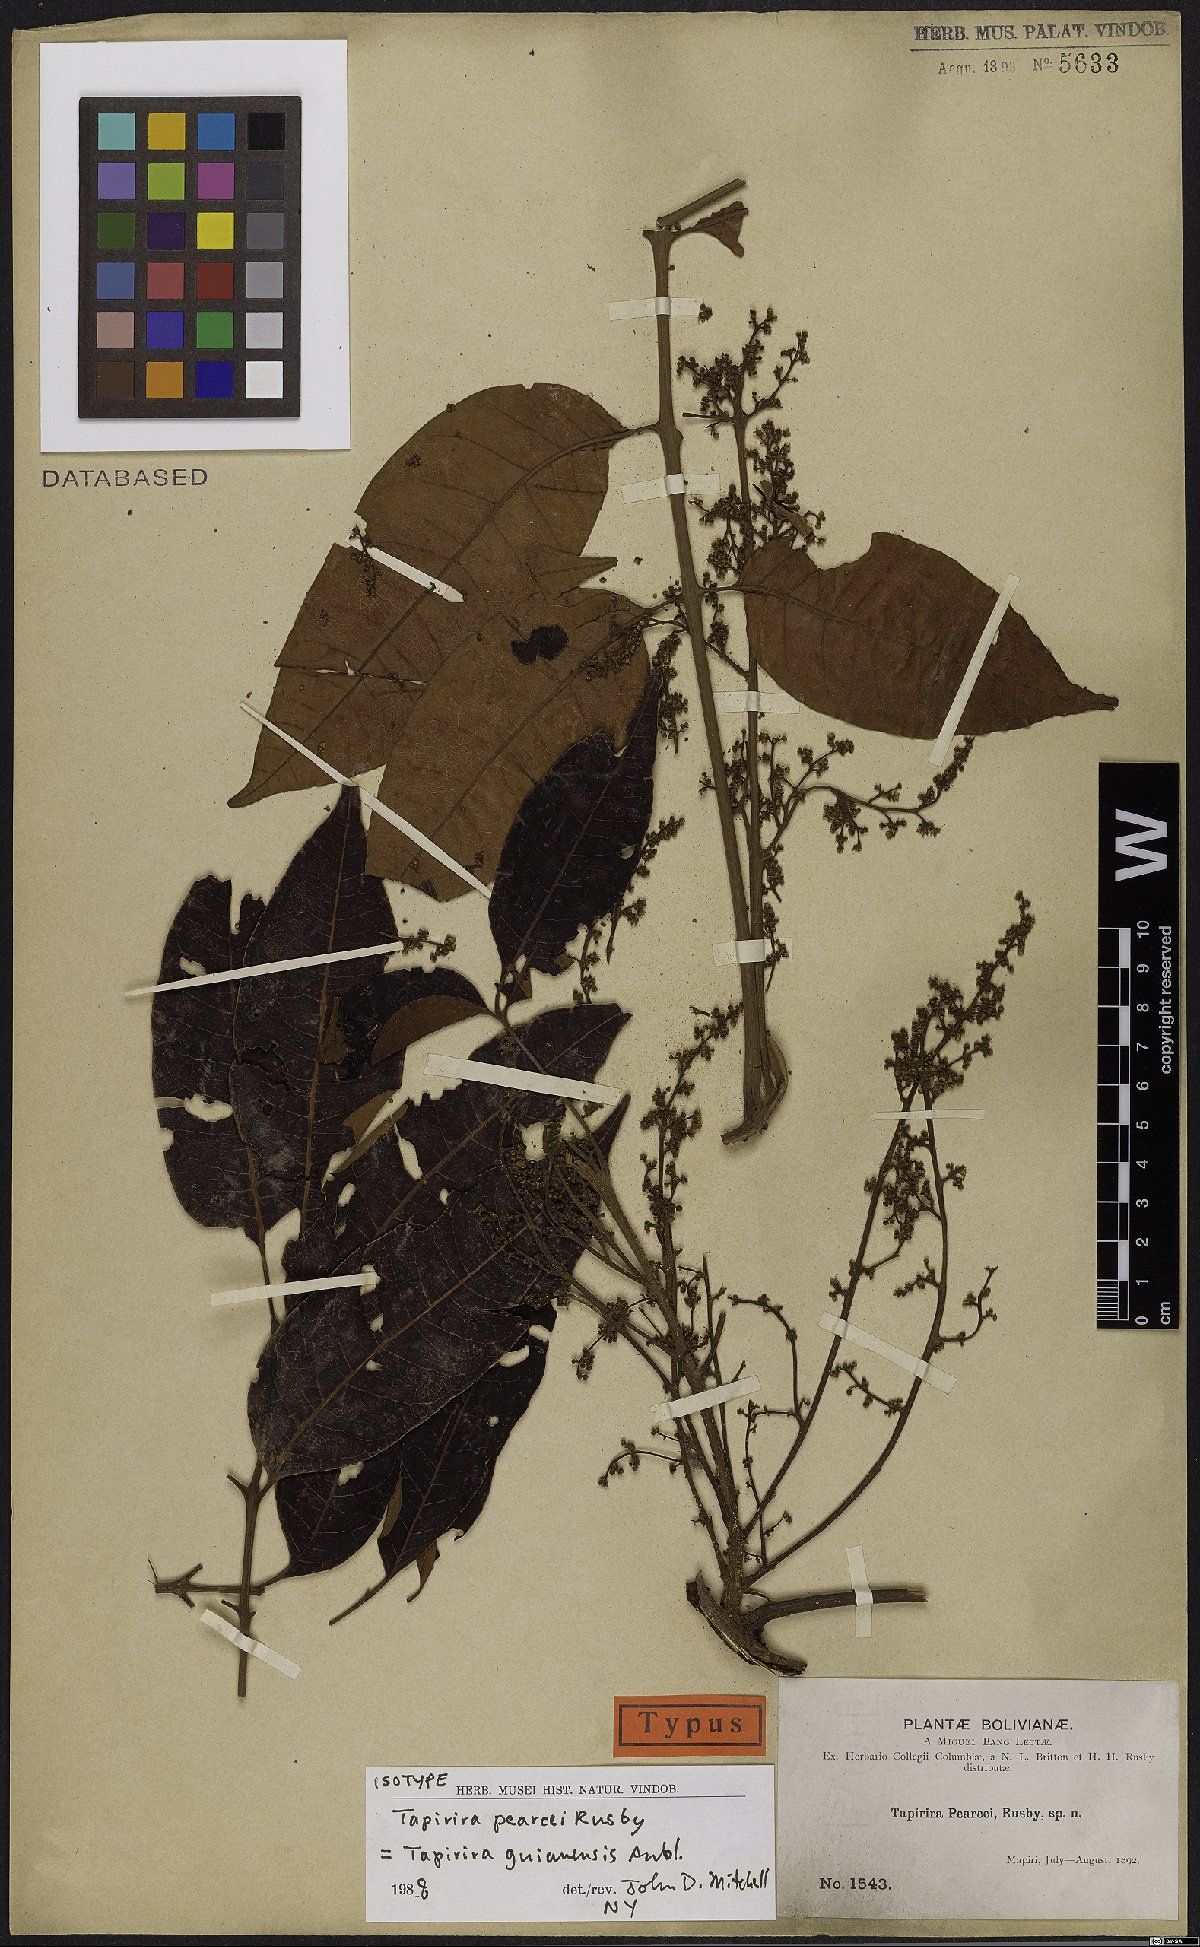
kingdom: Plantae
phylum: Tracheophyta
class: Magnoliopsida
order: Sapindales
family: Anacardiaceae
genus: Tapirira
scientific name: Tapirira guianensis
